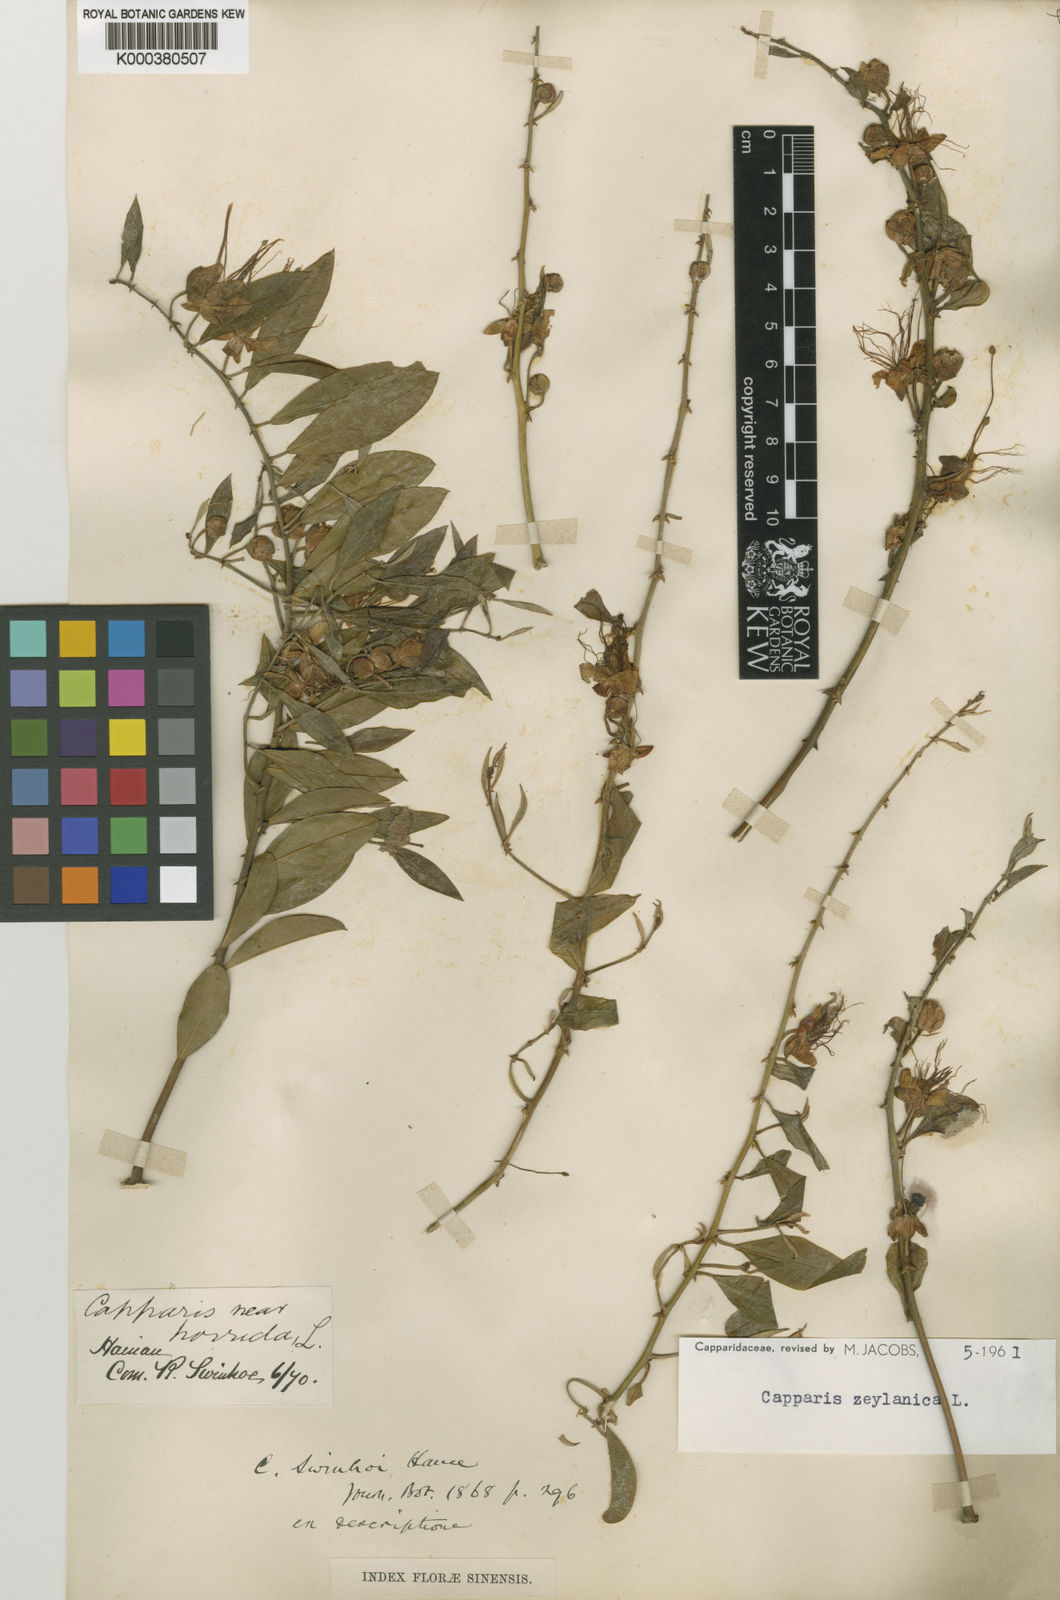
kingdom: Plantae
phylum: Tracheophyta
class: Magnoliopsida
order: Brassicales
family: Capparaceae
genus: Capparis
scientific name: Capparis zeylanica
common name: Ceylon caper
